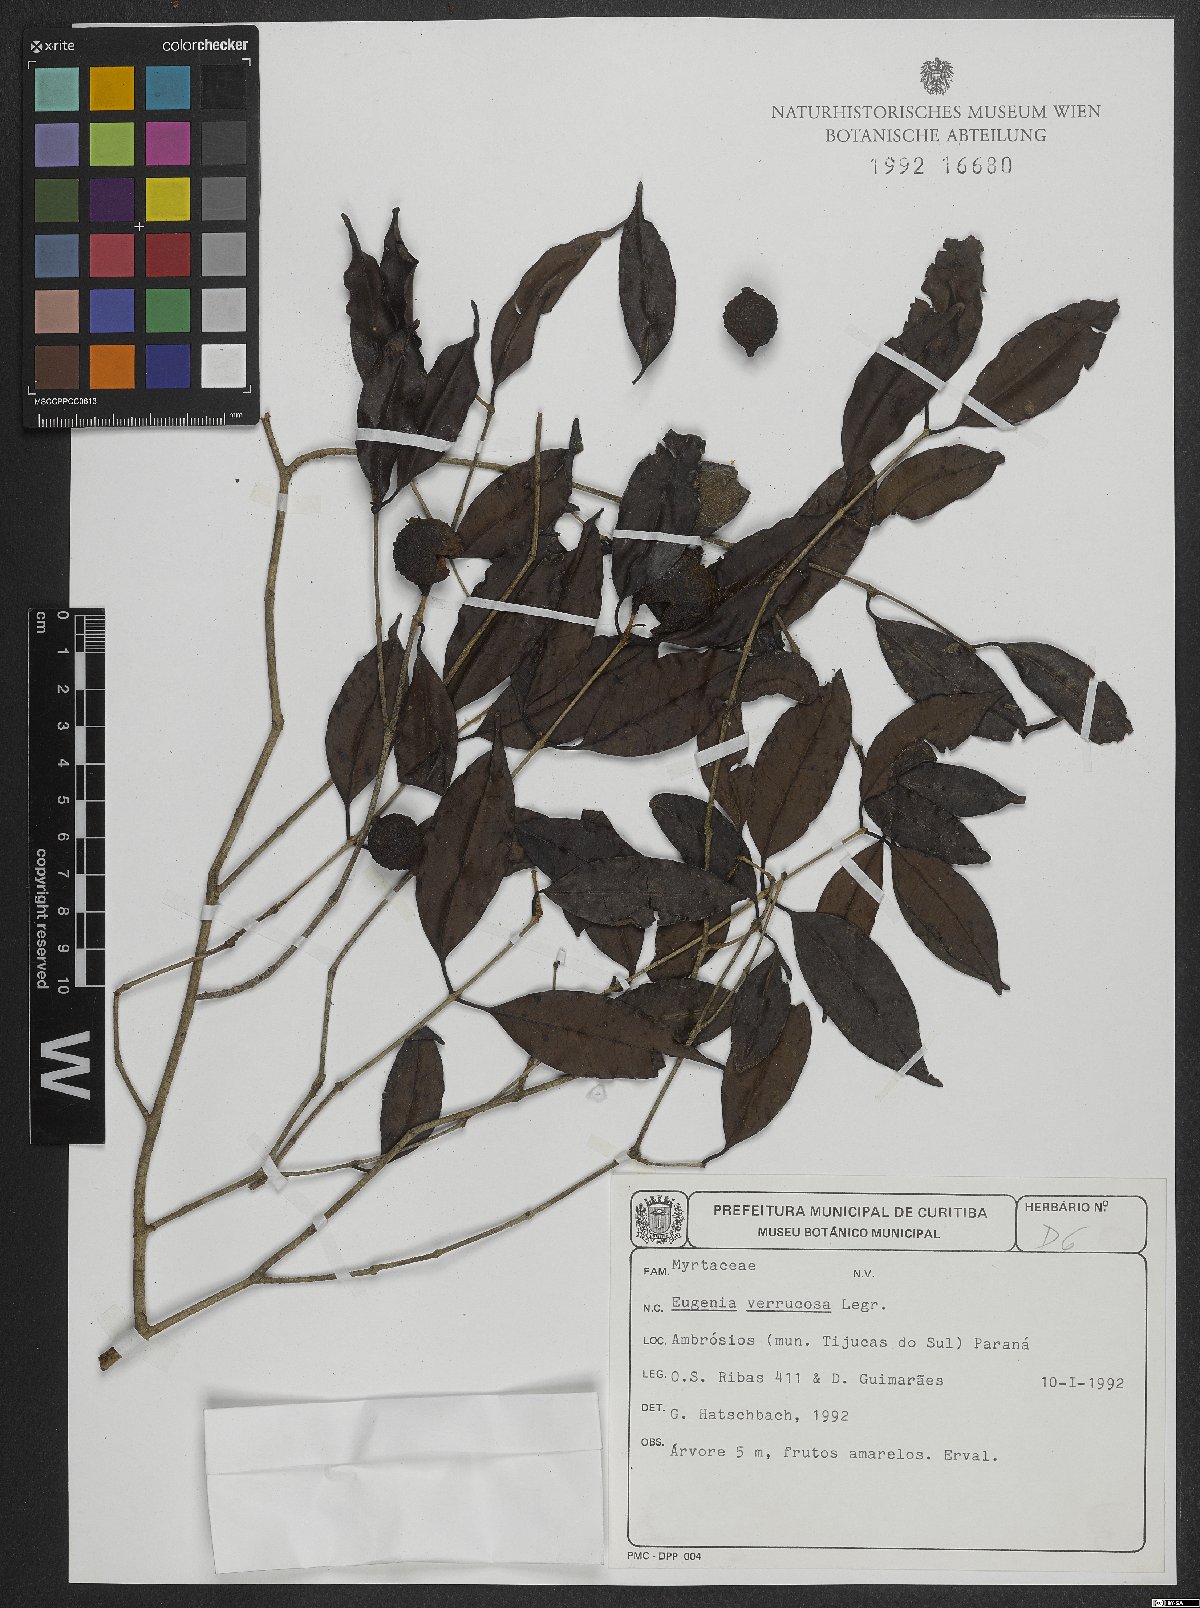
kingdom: Plantae
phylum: Tracheophyta
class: Magnoliopsida
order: Myrtales
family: Myrtaceae
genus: Eugenia
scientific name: Eugenia neoverrucosa
